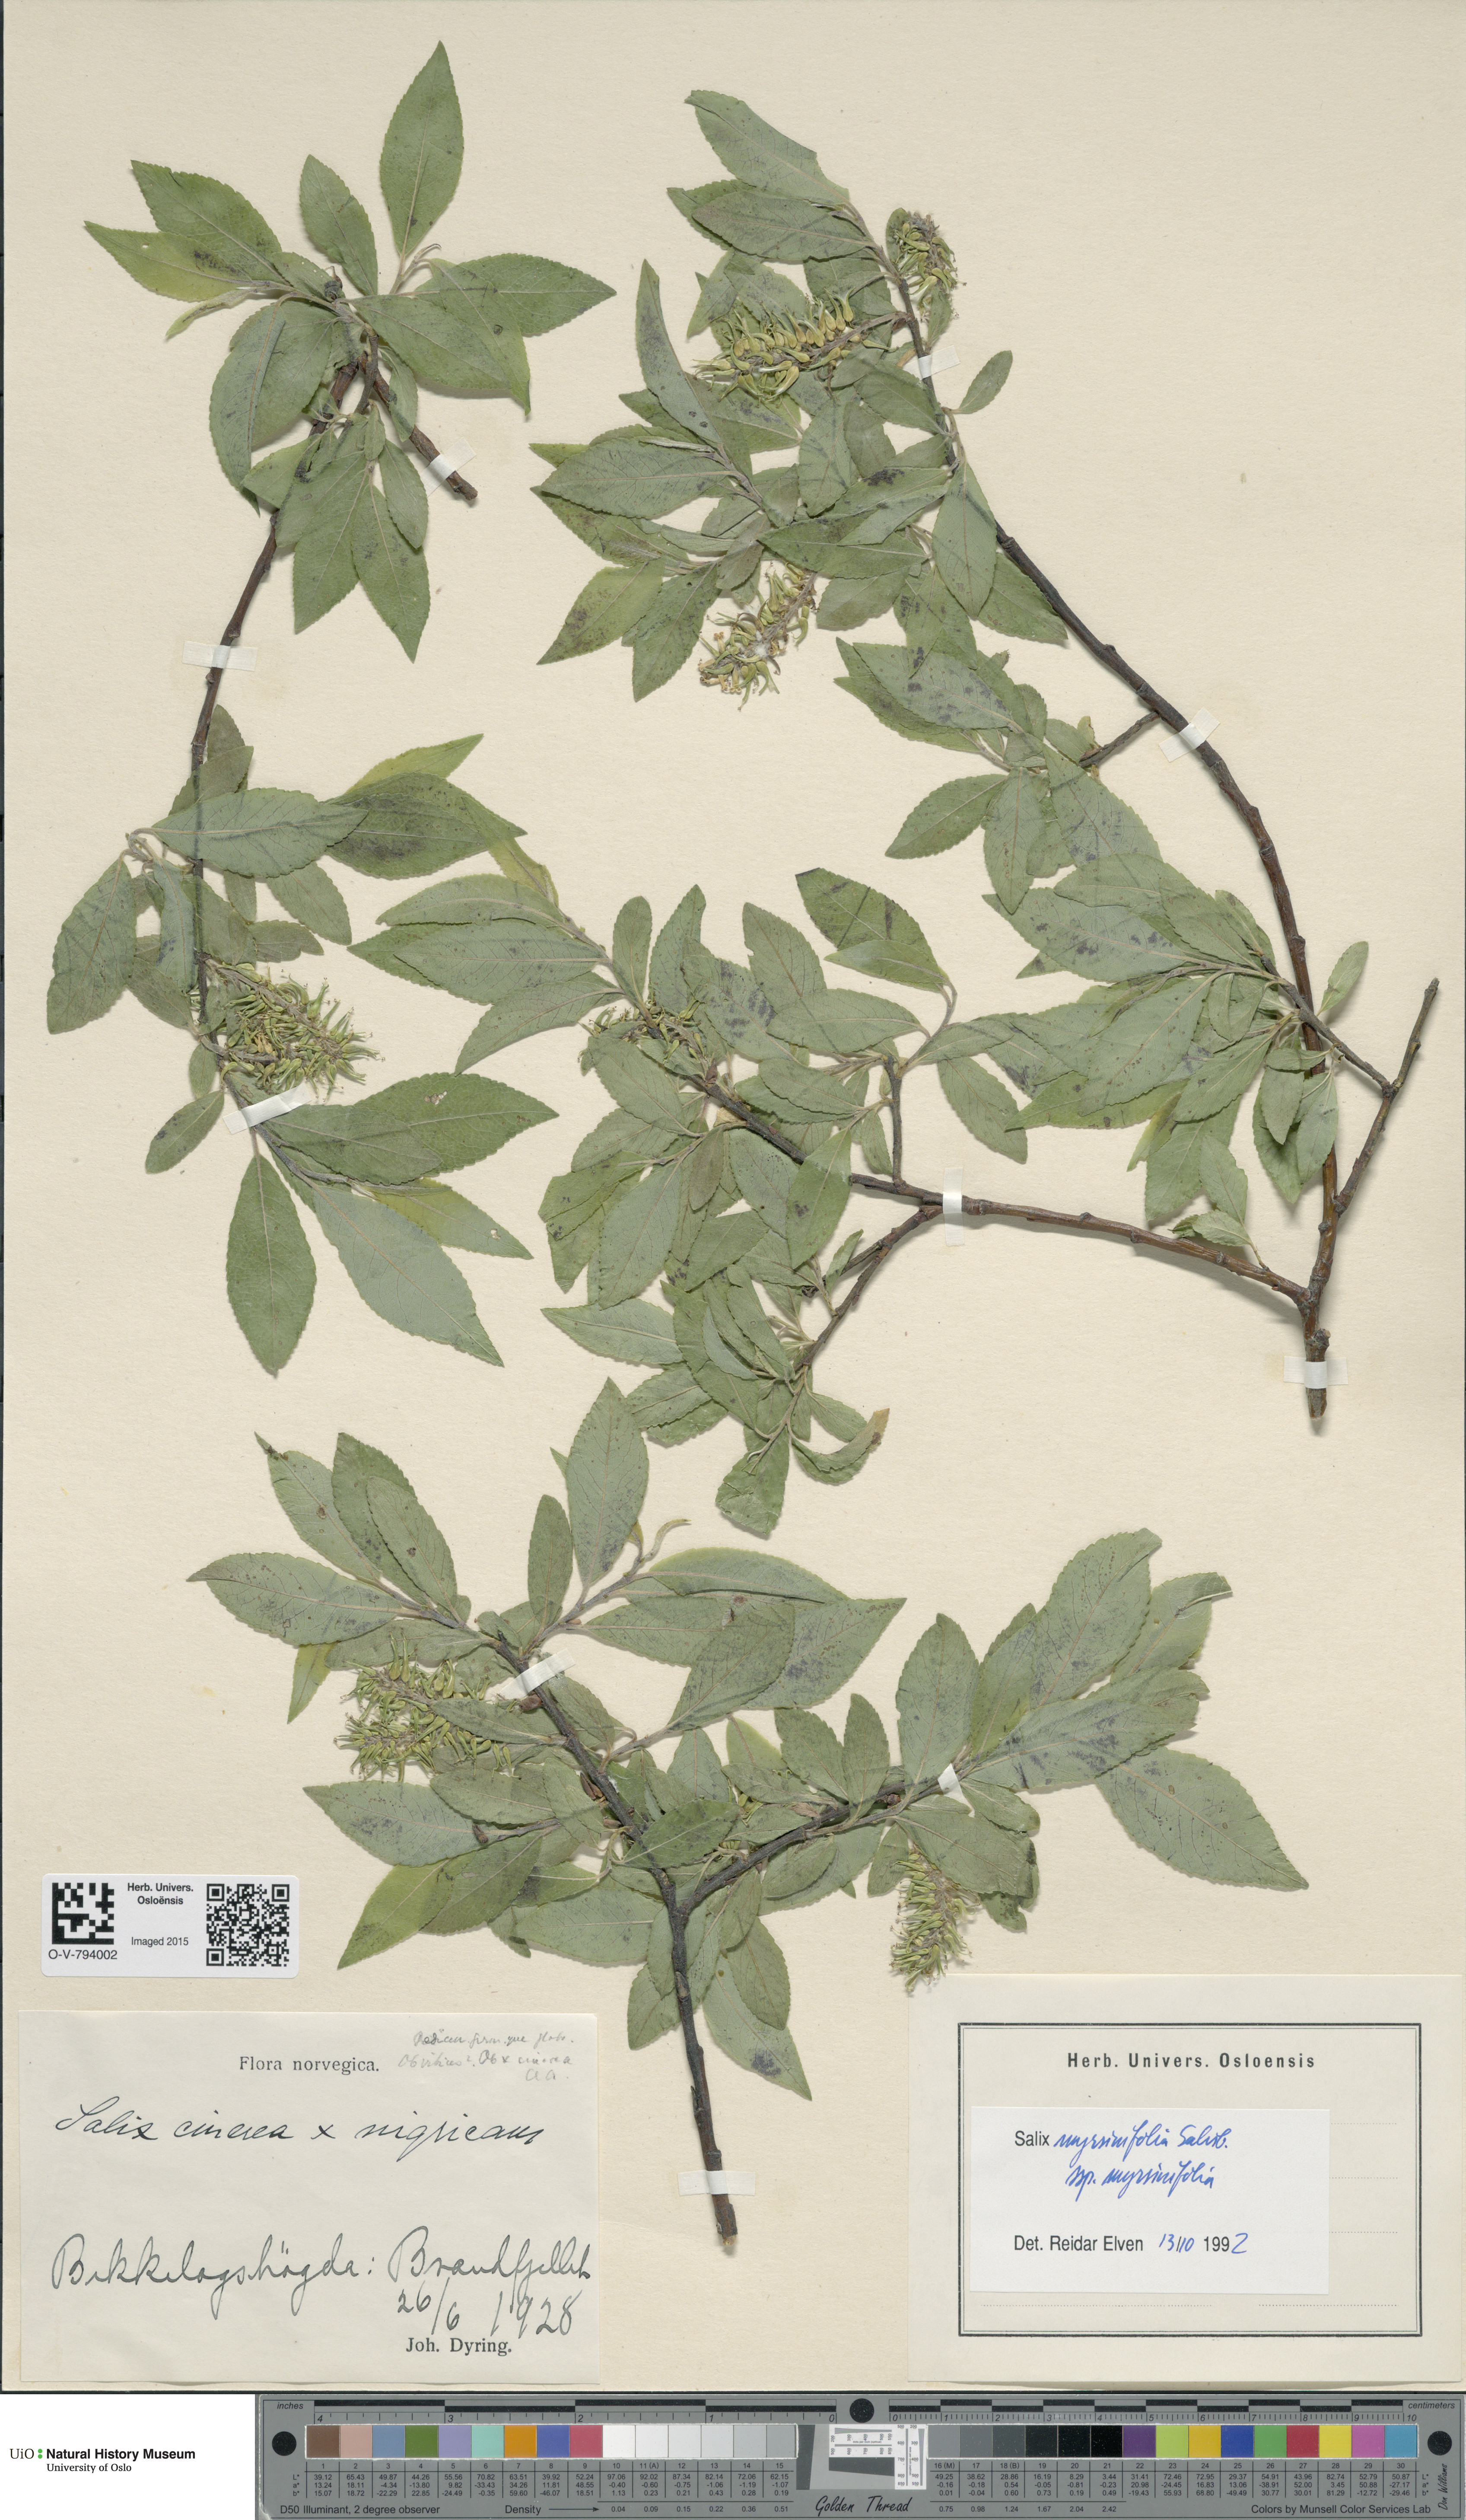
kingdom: Plantae
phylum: Tracheophyta
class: Magnoliopsida
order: Malpighiales
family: Salicaceae
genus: Salix
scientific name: Salix myrsinifolia
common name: Dark-leaved willow
